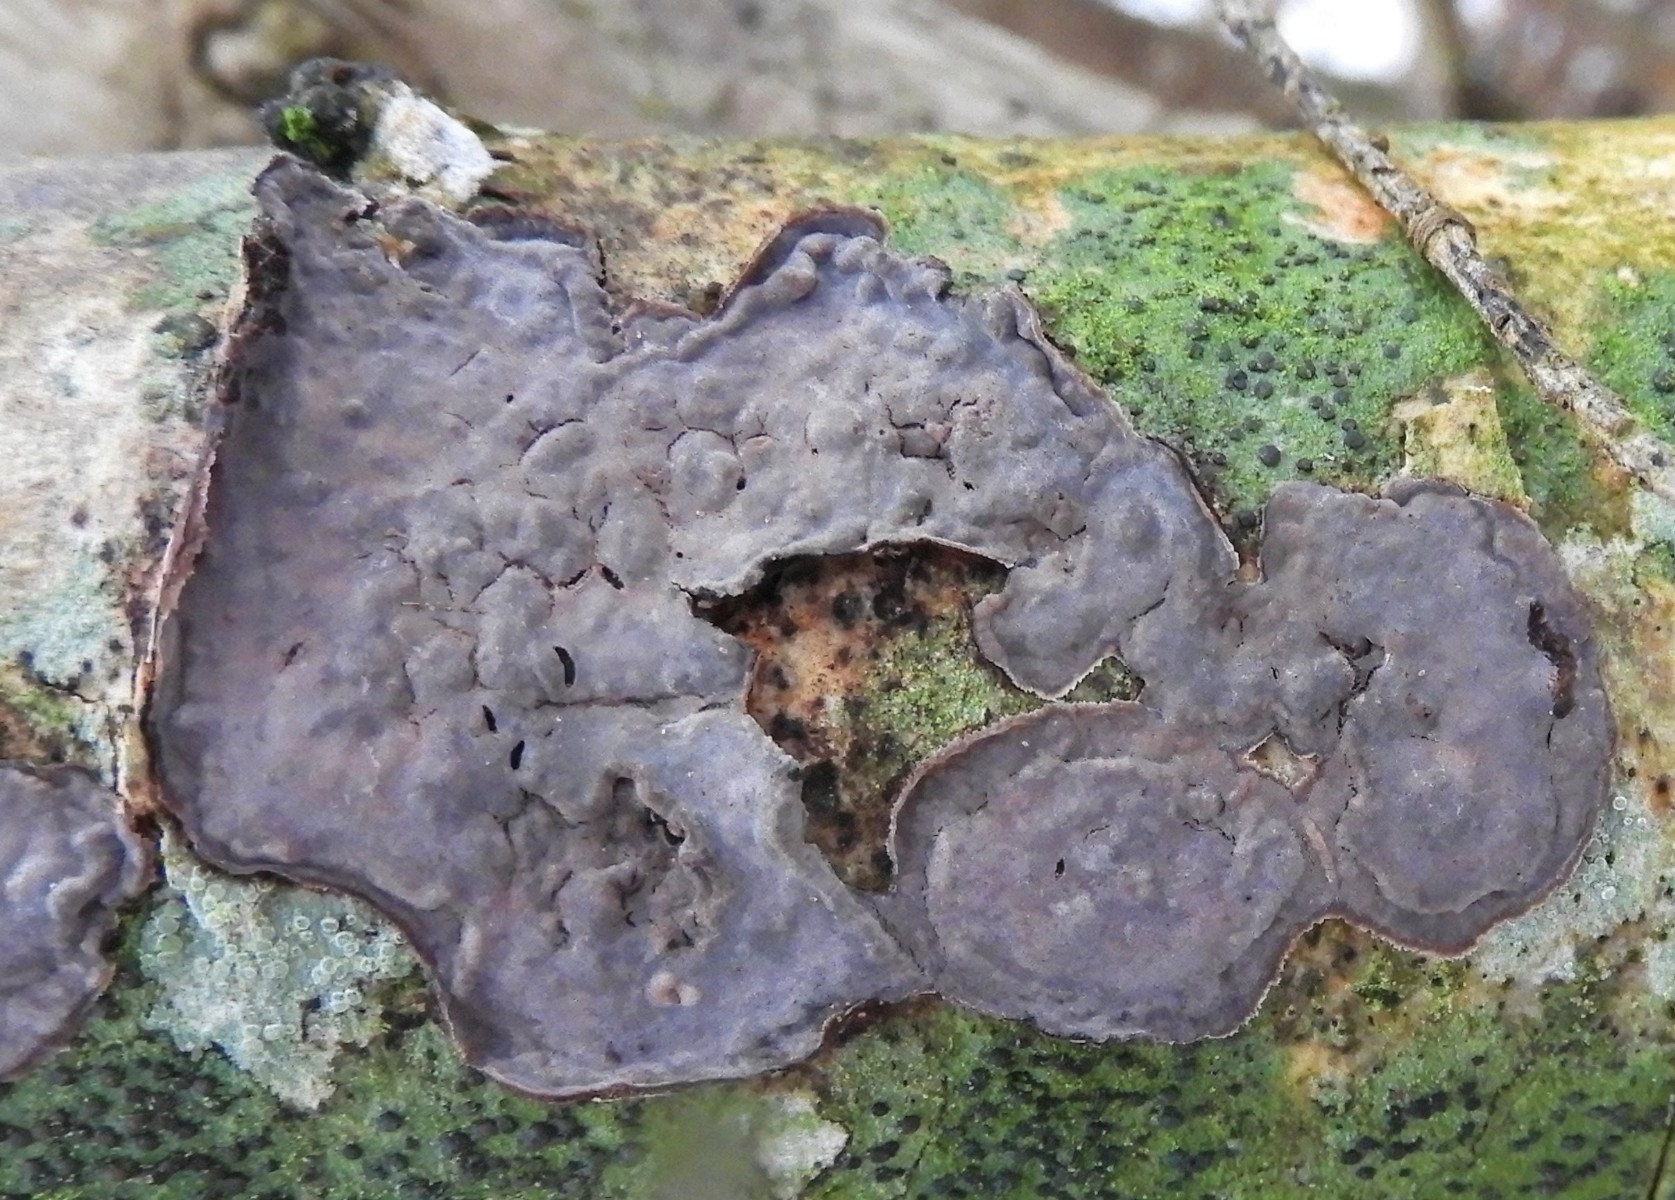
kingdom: Fungi
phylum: Basidiomycota
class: Agaricomycetes
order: Russulales
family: Peniophoraceae
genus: Peniophora
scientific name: Peniophora quercina
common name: ege-voksskind
